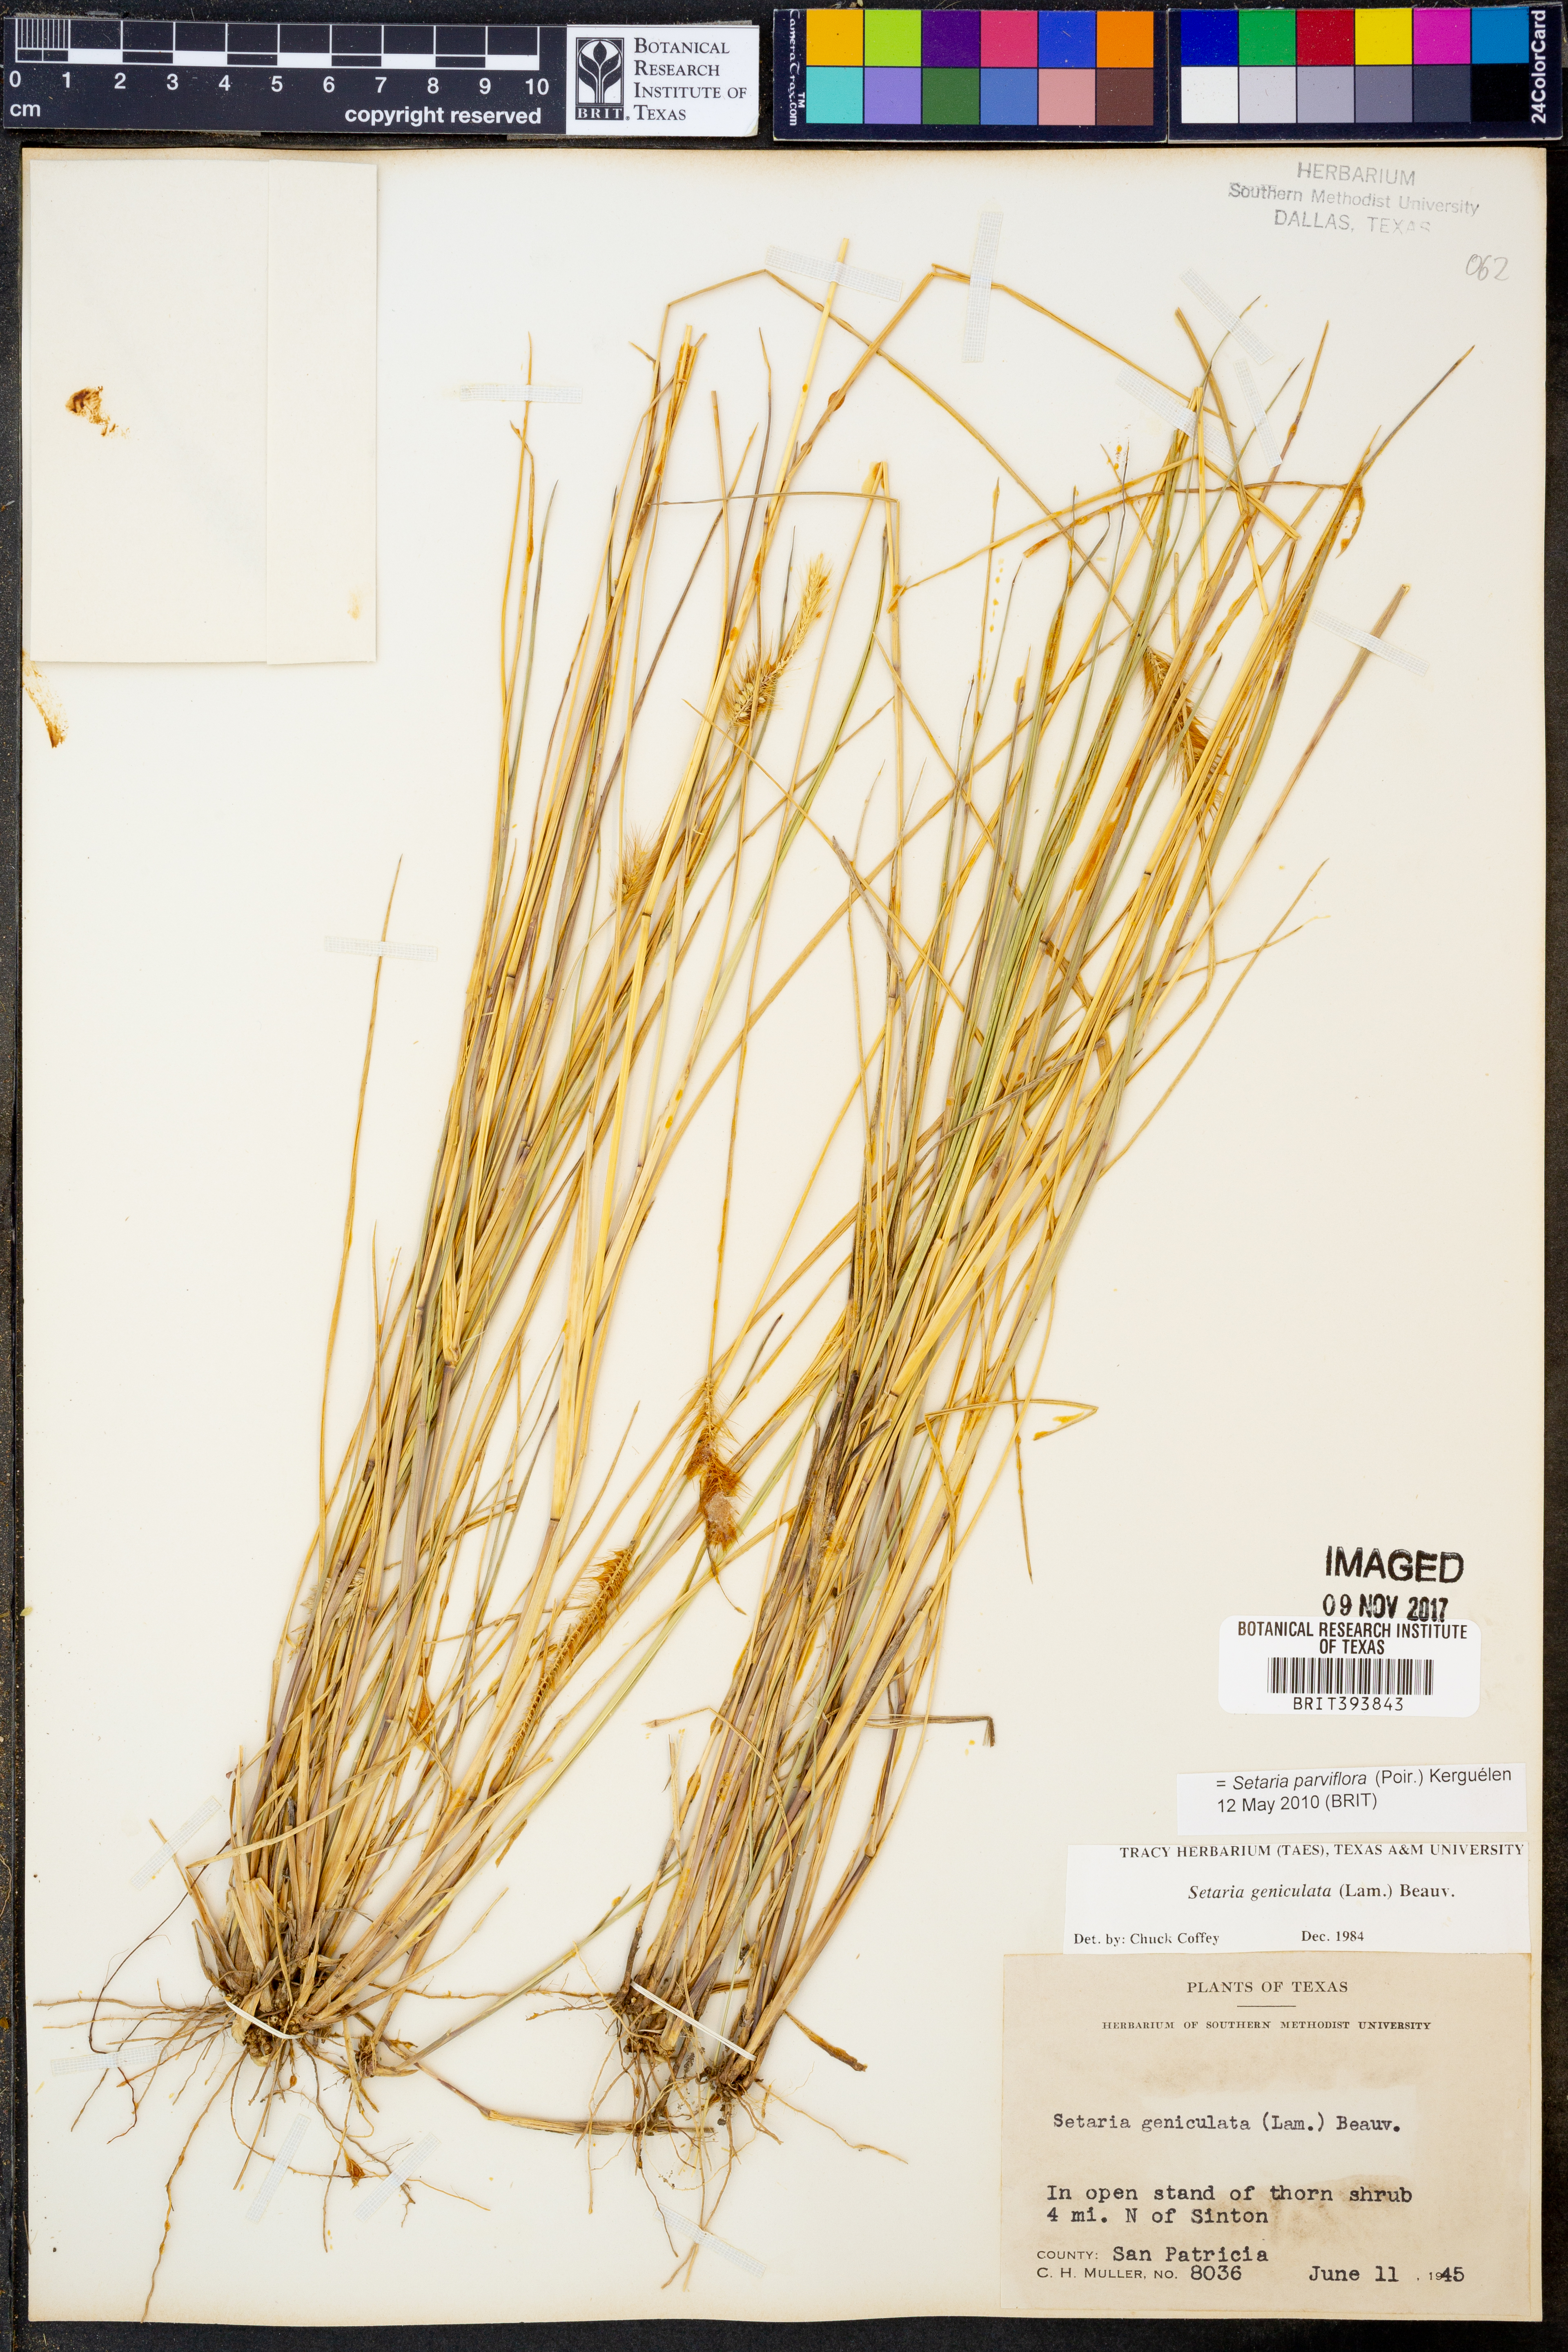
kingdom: Plantae
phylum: Tracheophyta
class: Liliopsida
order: Poales
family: Poaceae
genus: Setaria
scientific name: Setaria parviflora
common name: Knotroot bristle-grass
